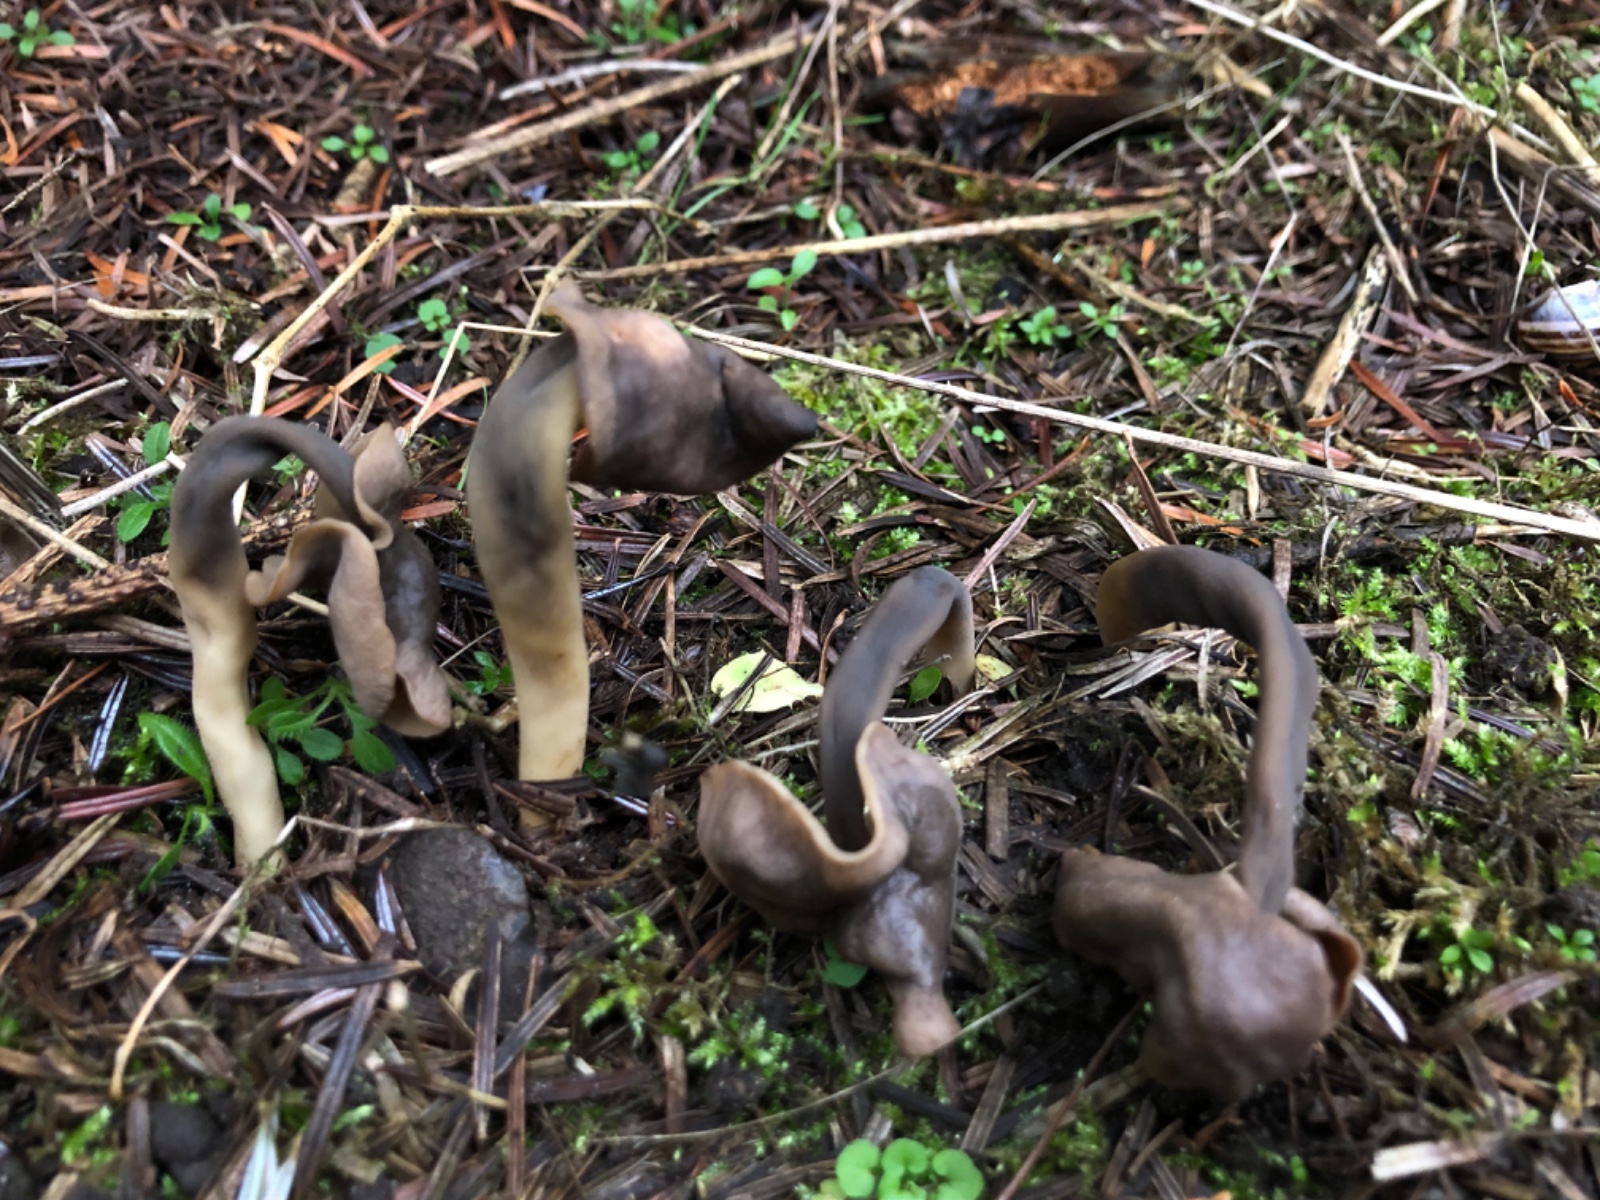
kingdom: Fungi
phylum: Ascomycota
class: Pezizomycetes
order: Pezizales
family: Helvellaceae
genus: Helvella
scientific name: Helvella elastica
